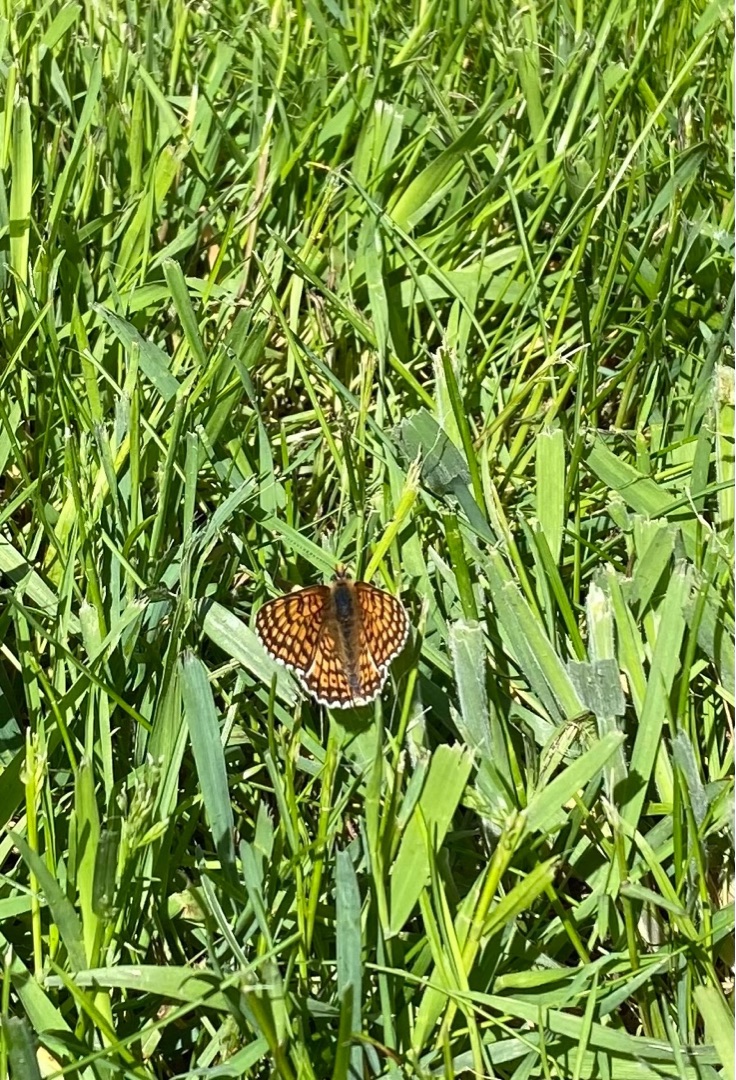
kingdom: Animalia
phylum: Arthropoda
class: Insecta
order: Lepidoptera
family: Nymphalidae
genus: Melitaea
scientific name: Melitaea cinxia
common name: Okkergul pletvinge
